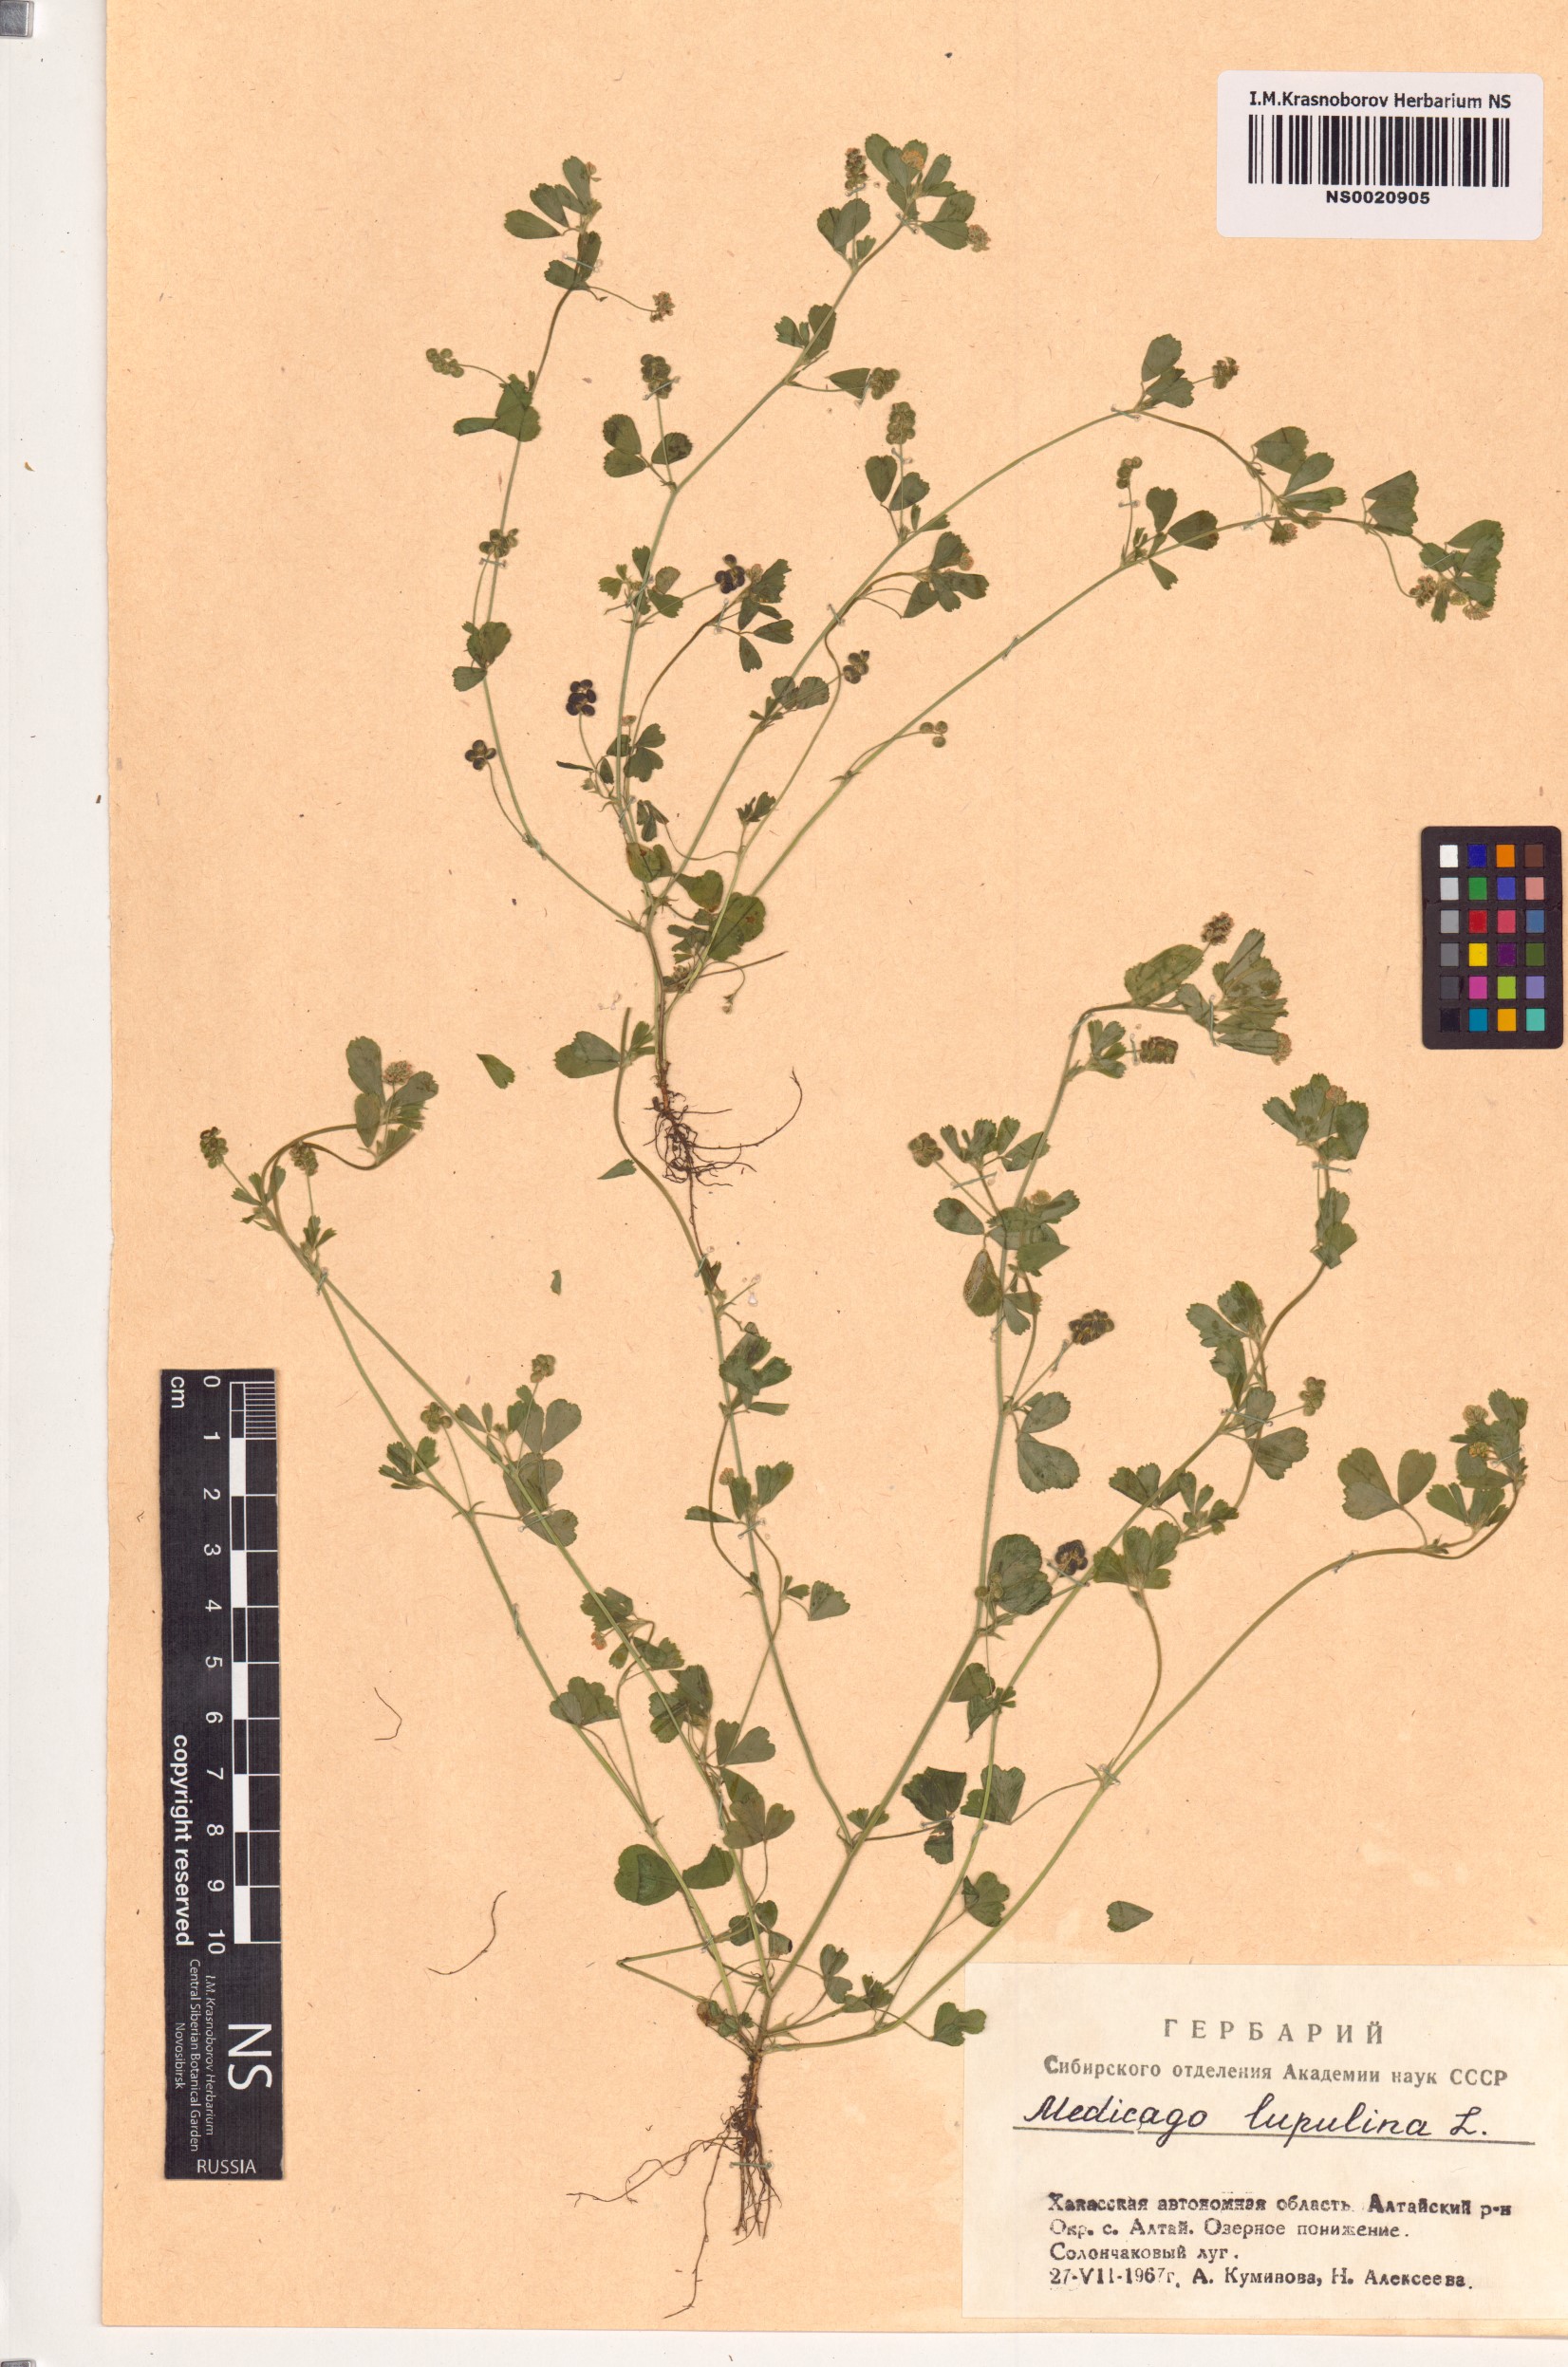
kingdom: Plantae
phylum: Tracheophyta
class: Magnoliopsida
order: Fabales
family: Fabaceae
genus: Medicago
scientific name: Medicago lupulina
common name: Black medick
